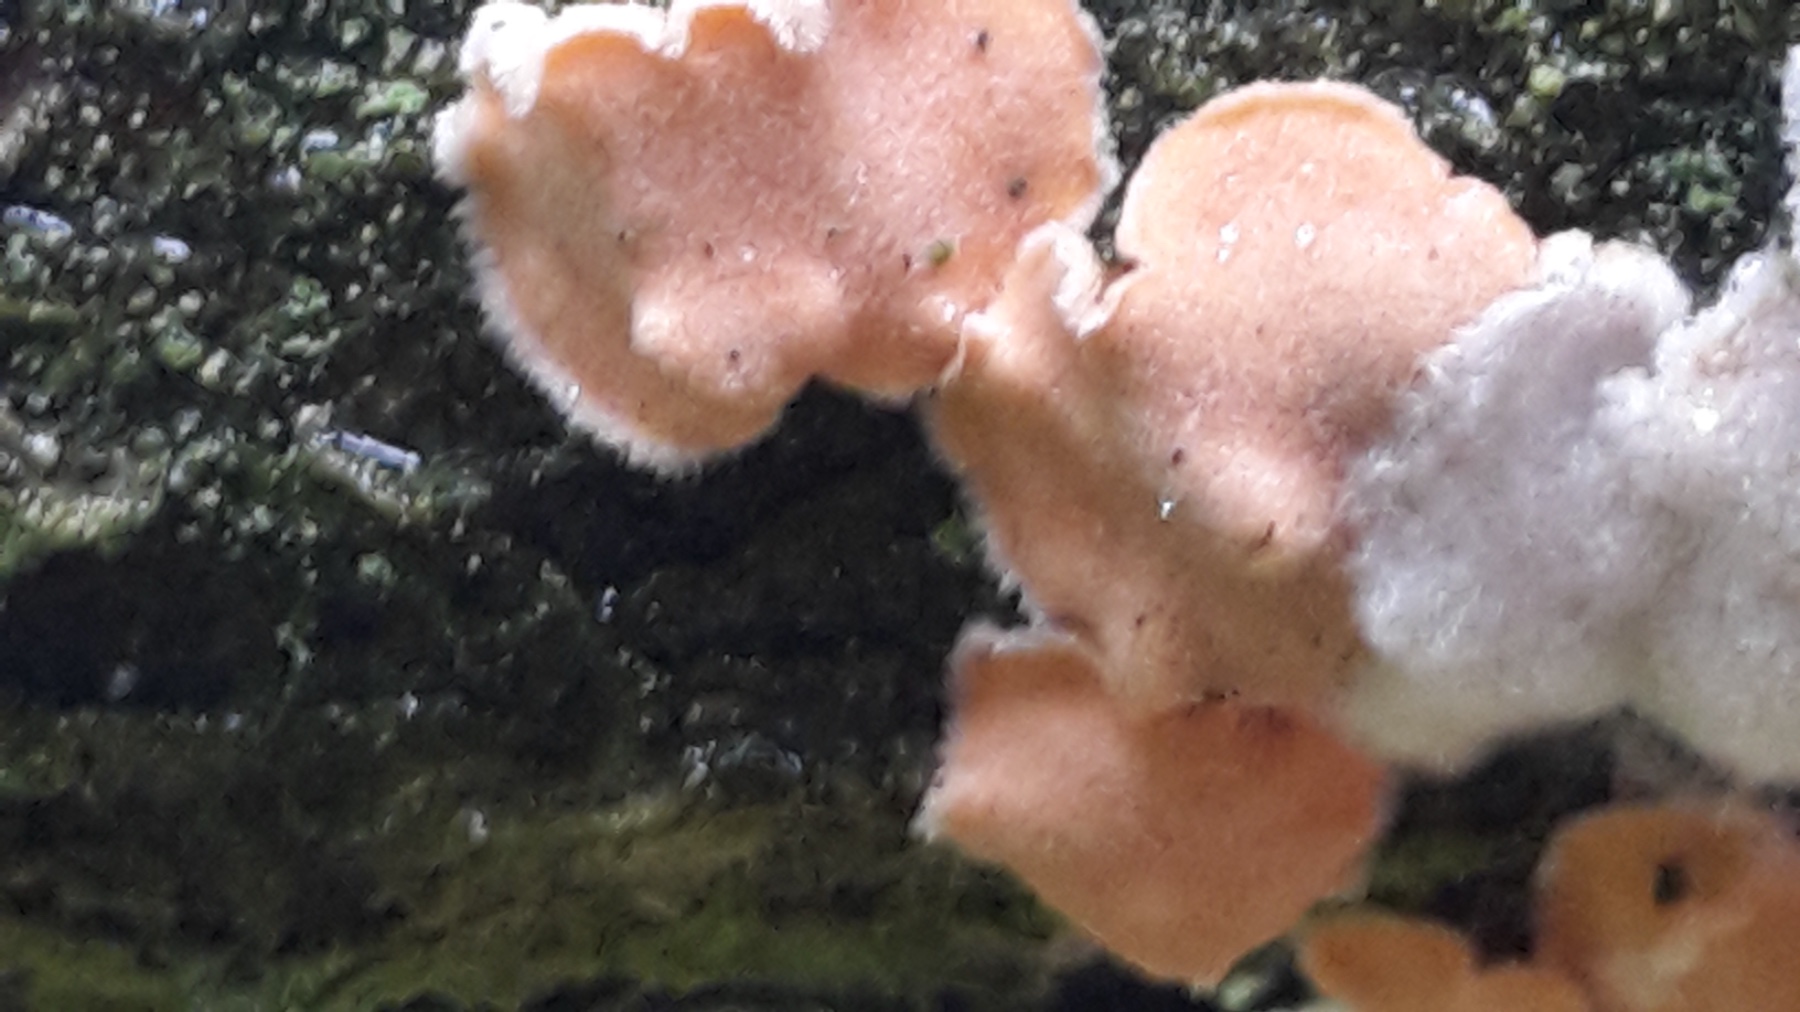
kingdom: Fungi
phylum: Basidiomycota
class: Agaricomycetes
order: Russulales
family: Stereaceae
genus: Aleurodiscus
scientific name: Aleurodiscus amorphus
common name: orange skiveskorpe
